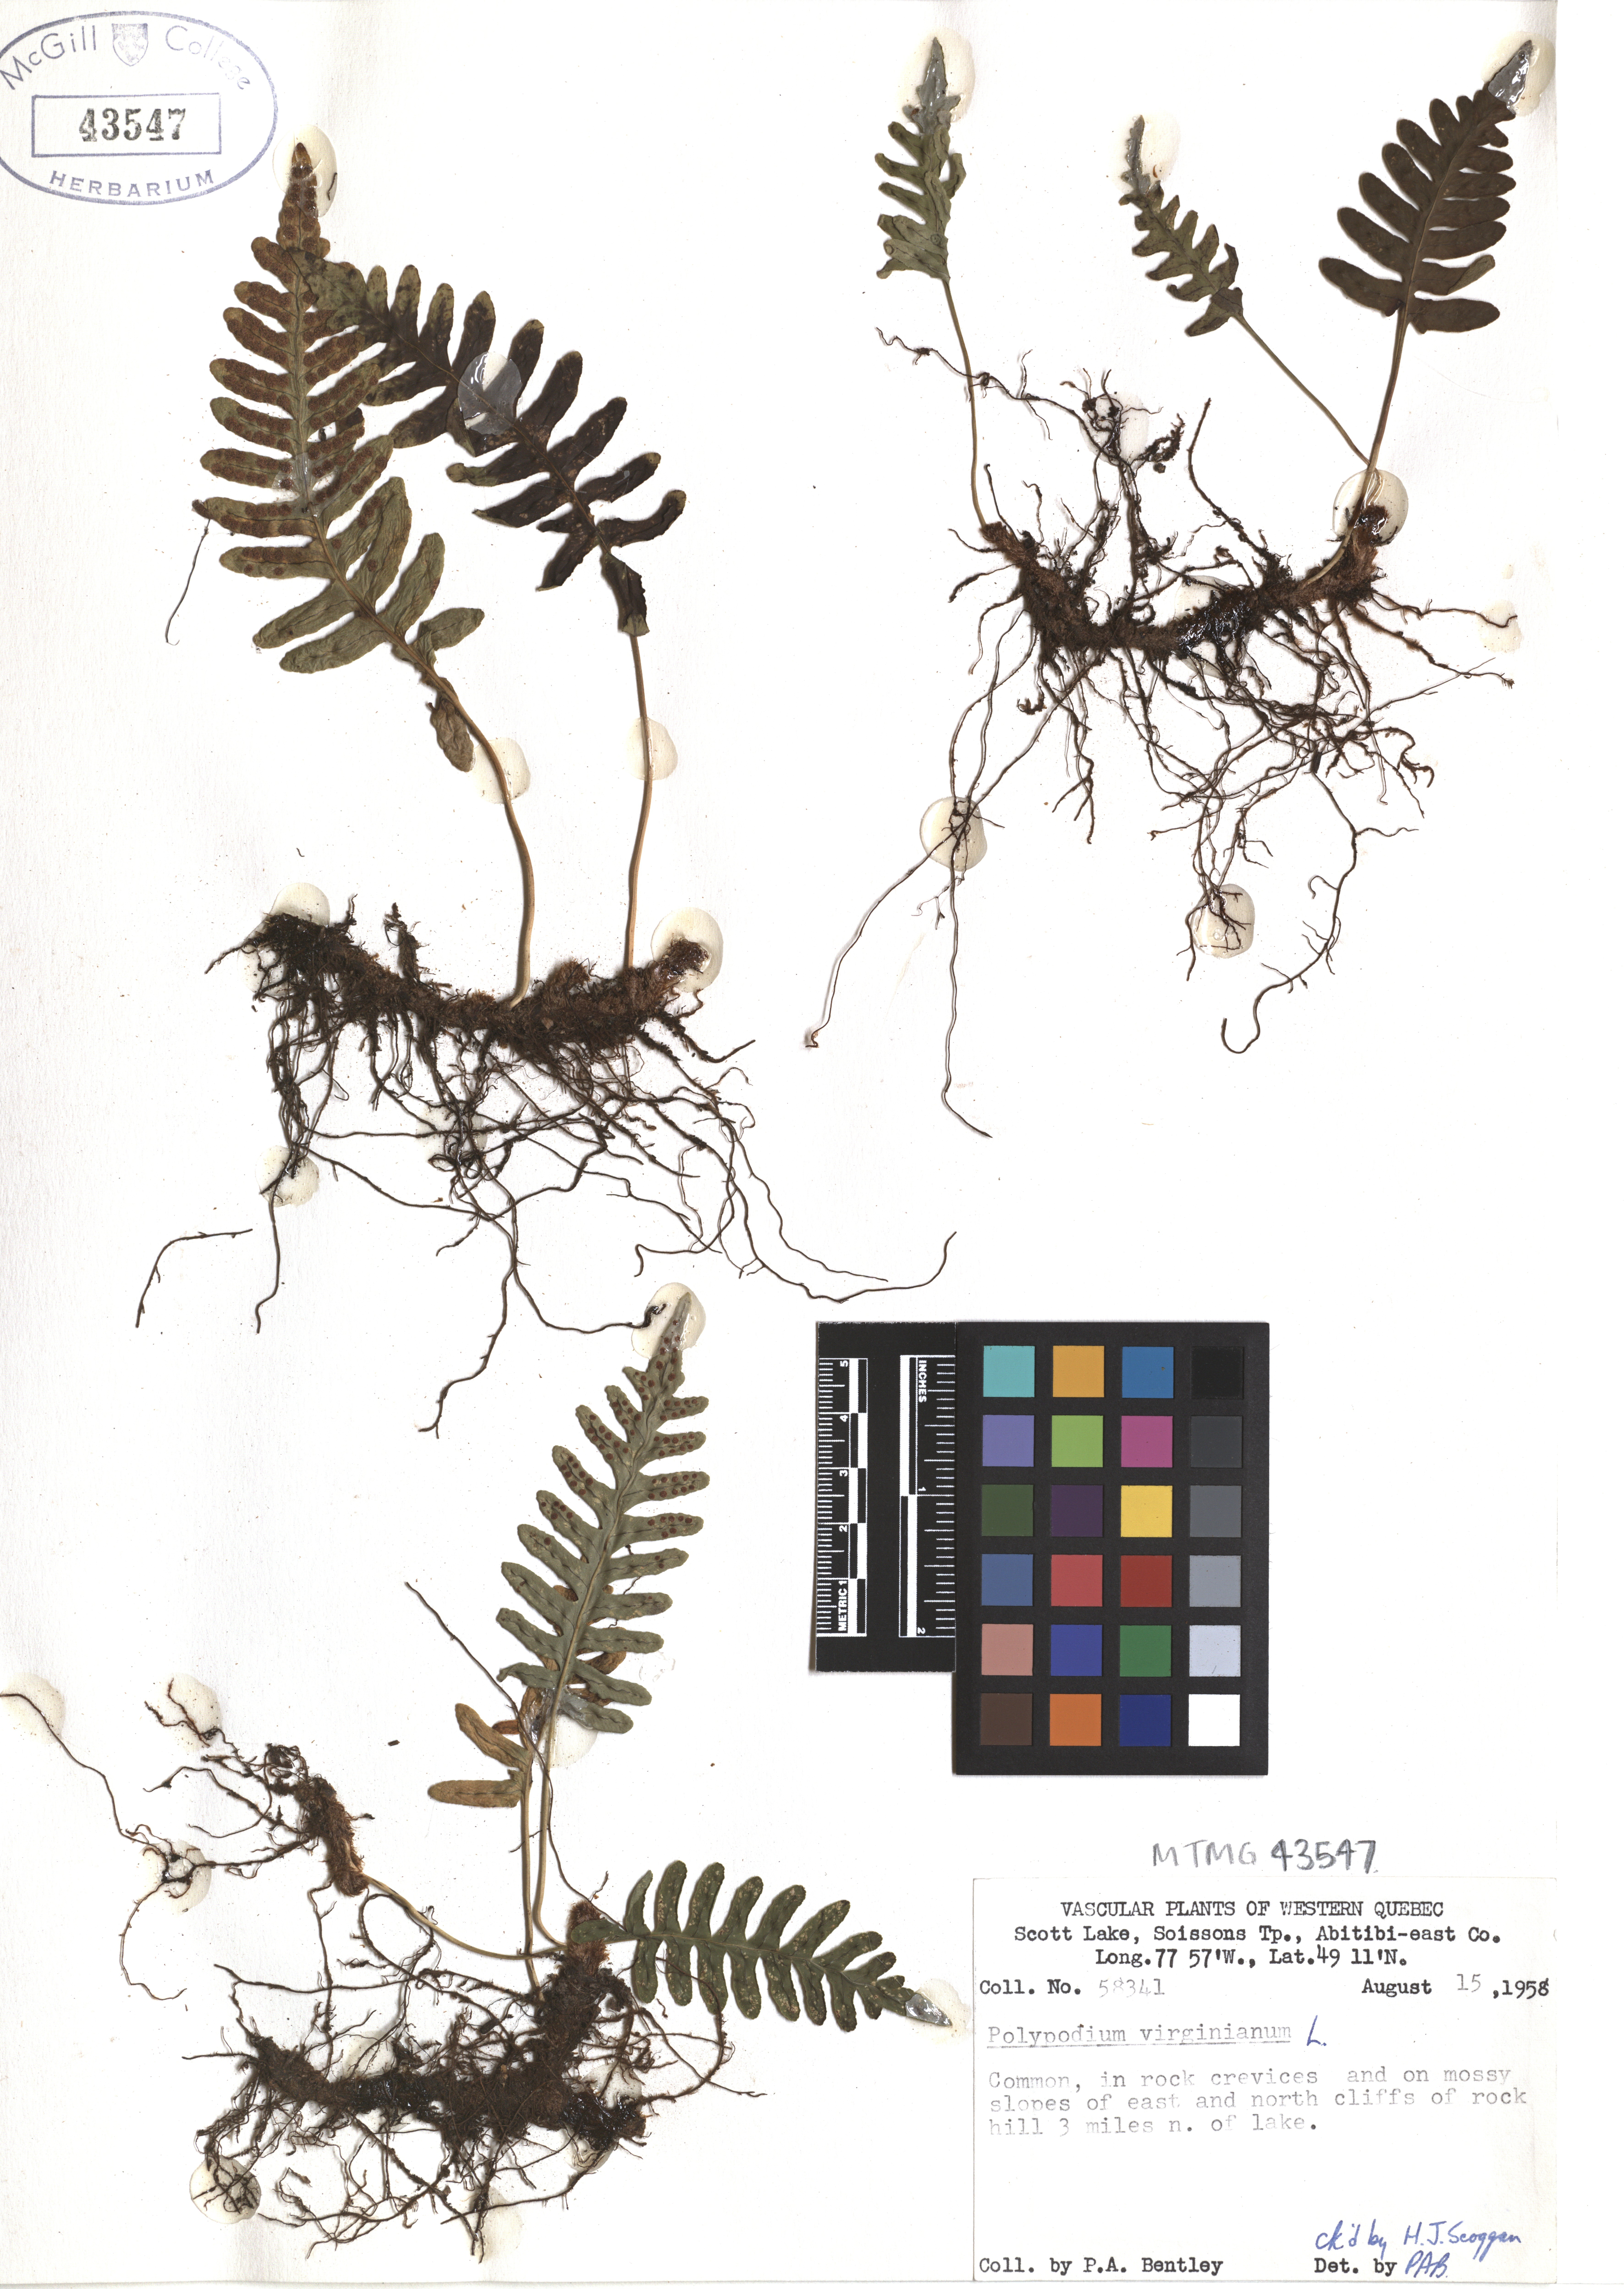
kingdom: Plantae
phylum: Tracheophyta
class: Polypodiopsida
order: Polypodiales
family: Polypodiaceae
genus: Polypodium
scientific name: Polypodium virginianum
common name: American wall fern
